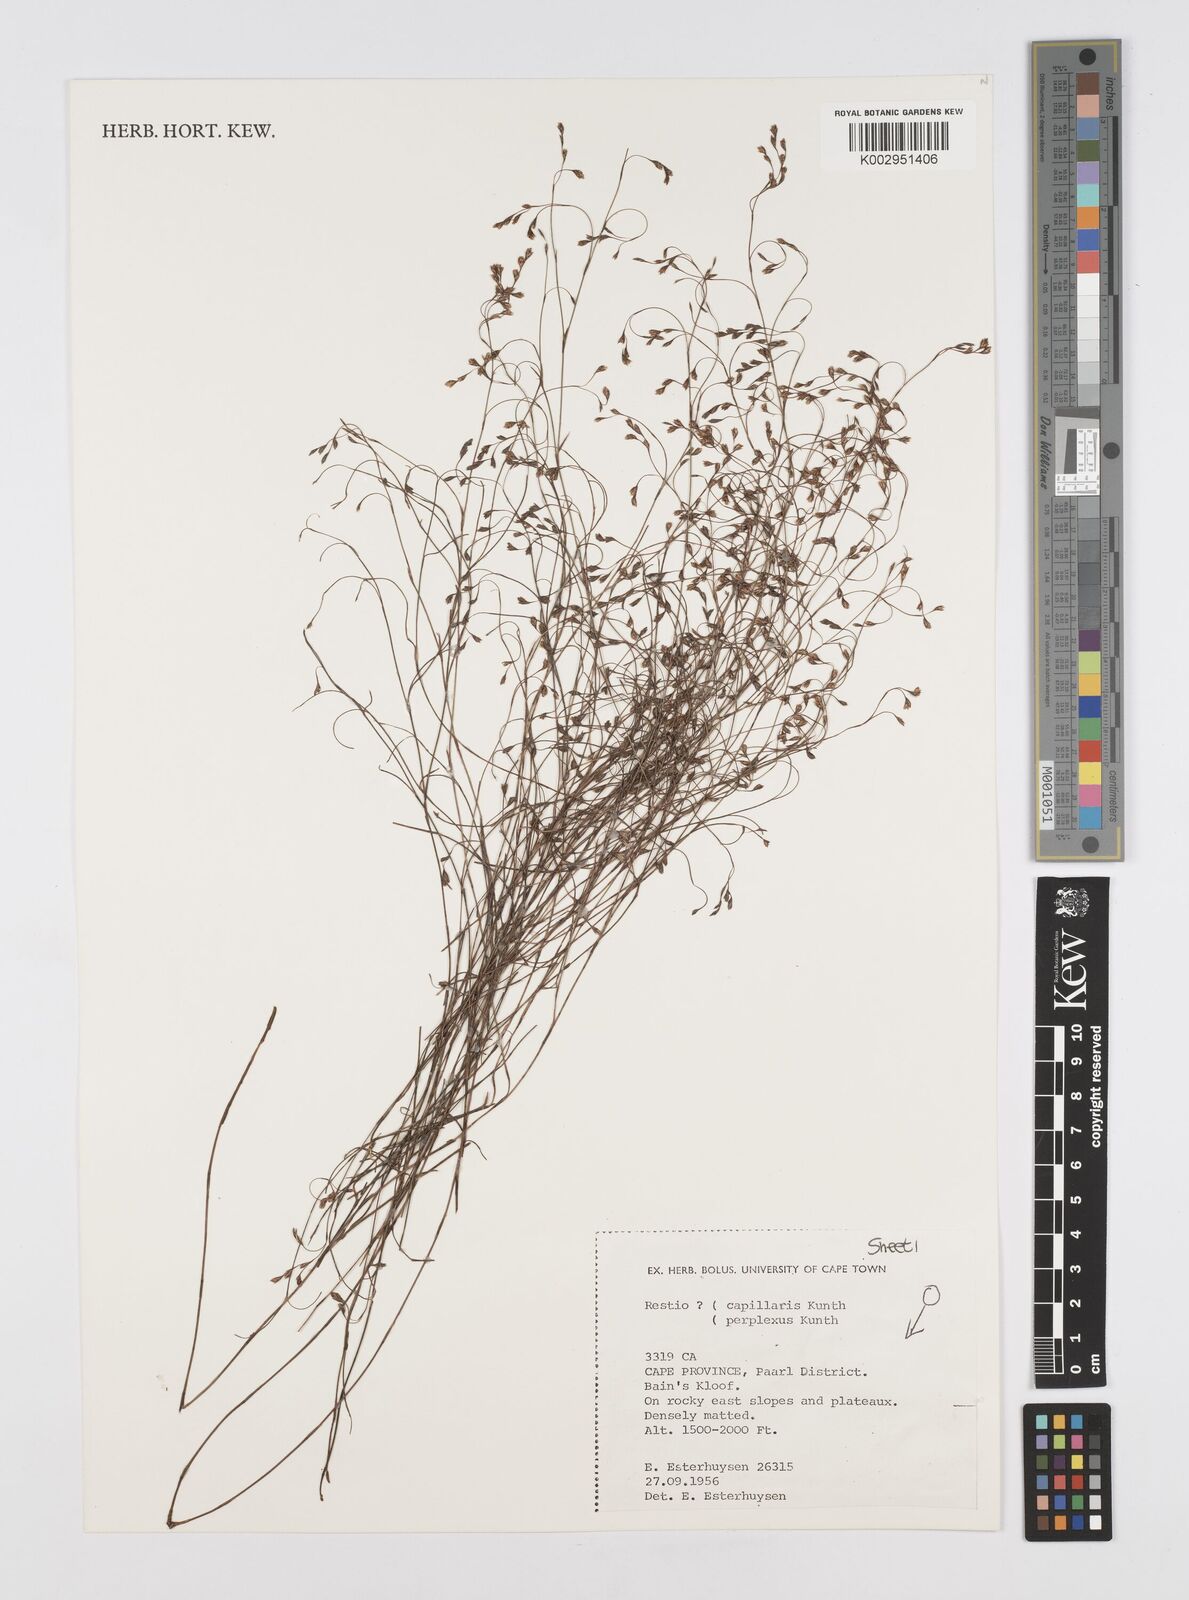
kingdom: Plantae
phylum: Tracheophyta
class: Liliopsida
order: Poales
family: Restionaceae
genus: Restio
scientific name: Restio perplexus
